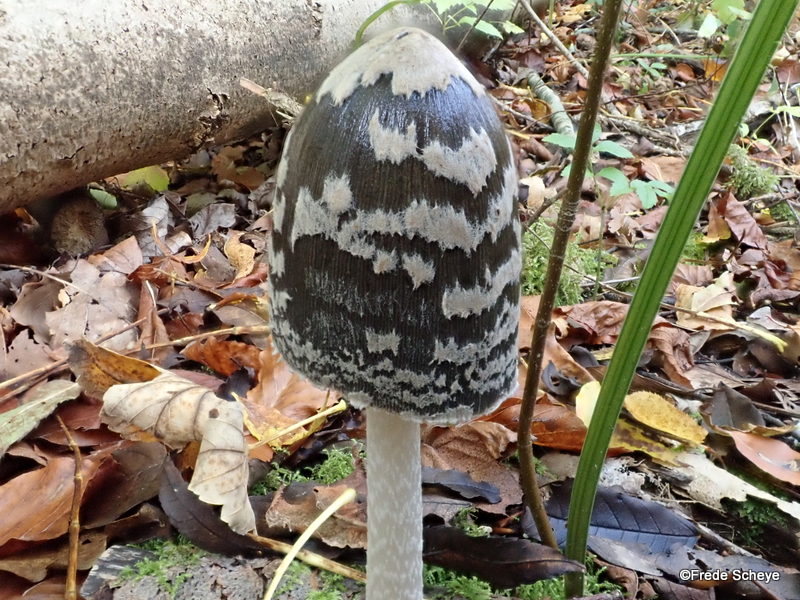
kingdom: Fungi
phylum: Basidiomycota
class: Agaricomycetes
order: Agaricales
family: Psathyrellaceae
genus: Coprinopsis
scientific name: Coprinopsis picacea
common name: skade-blækhat
